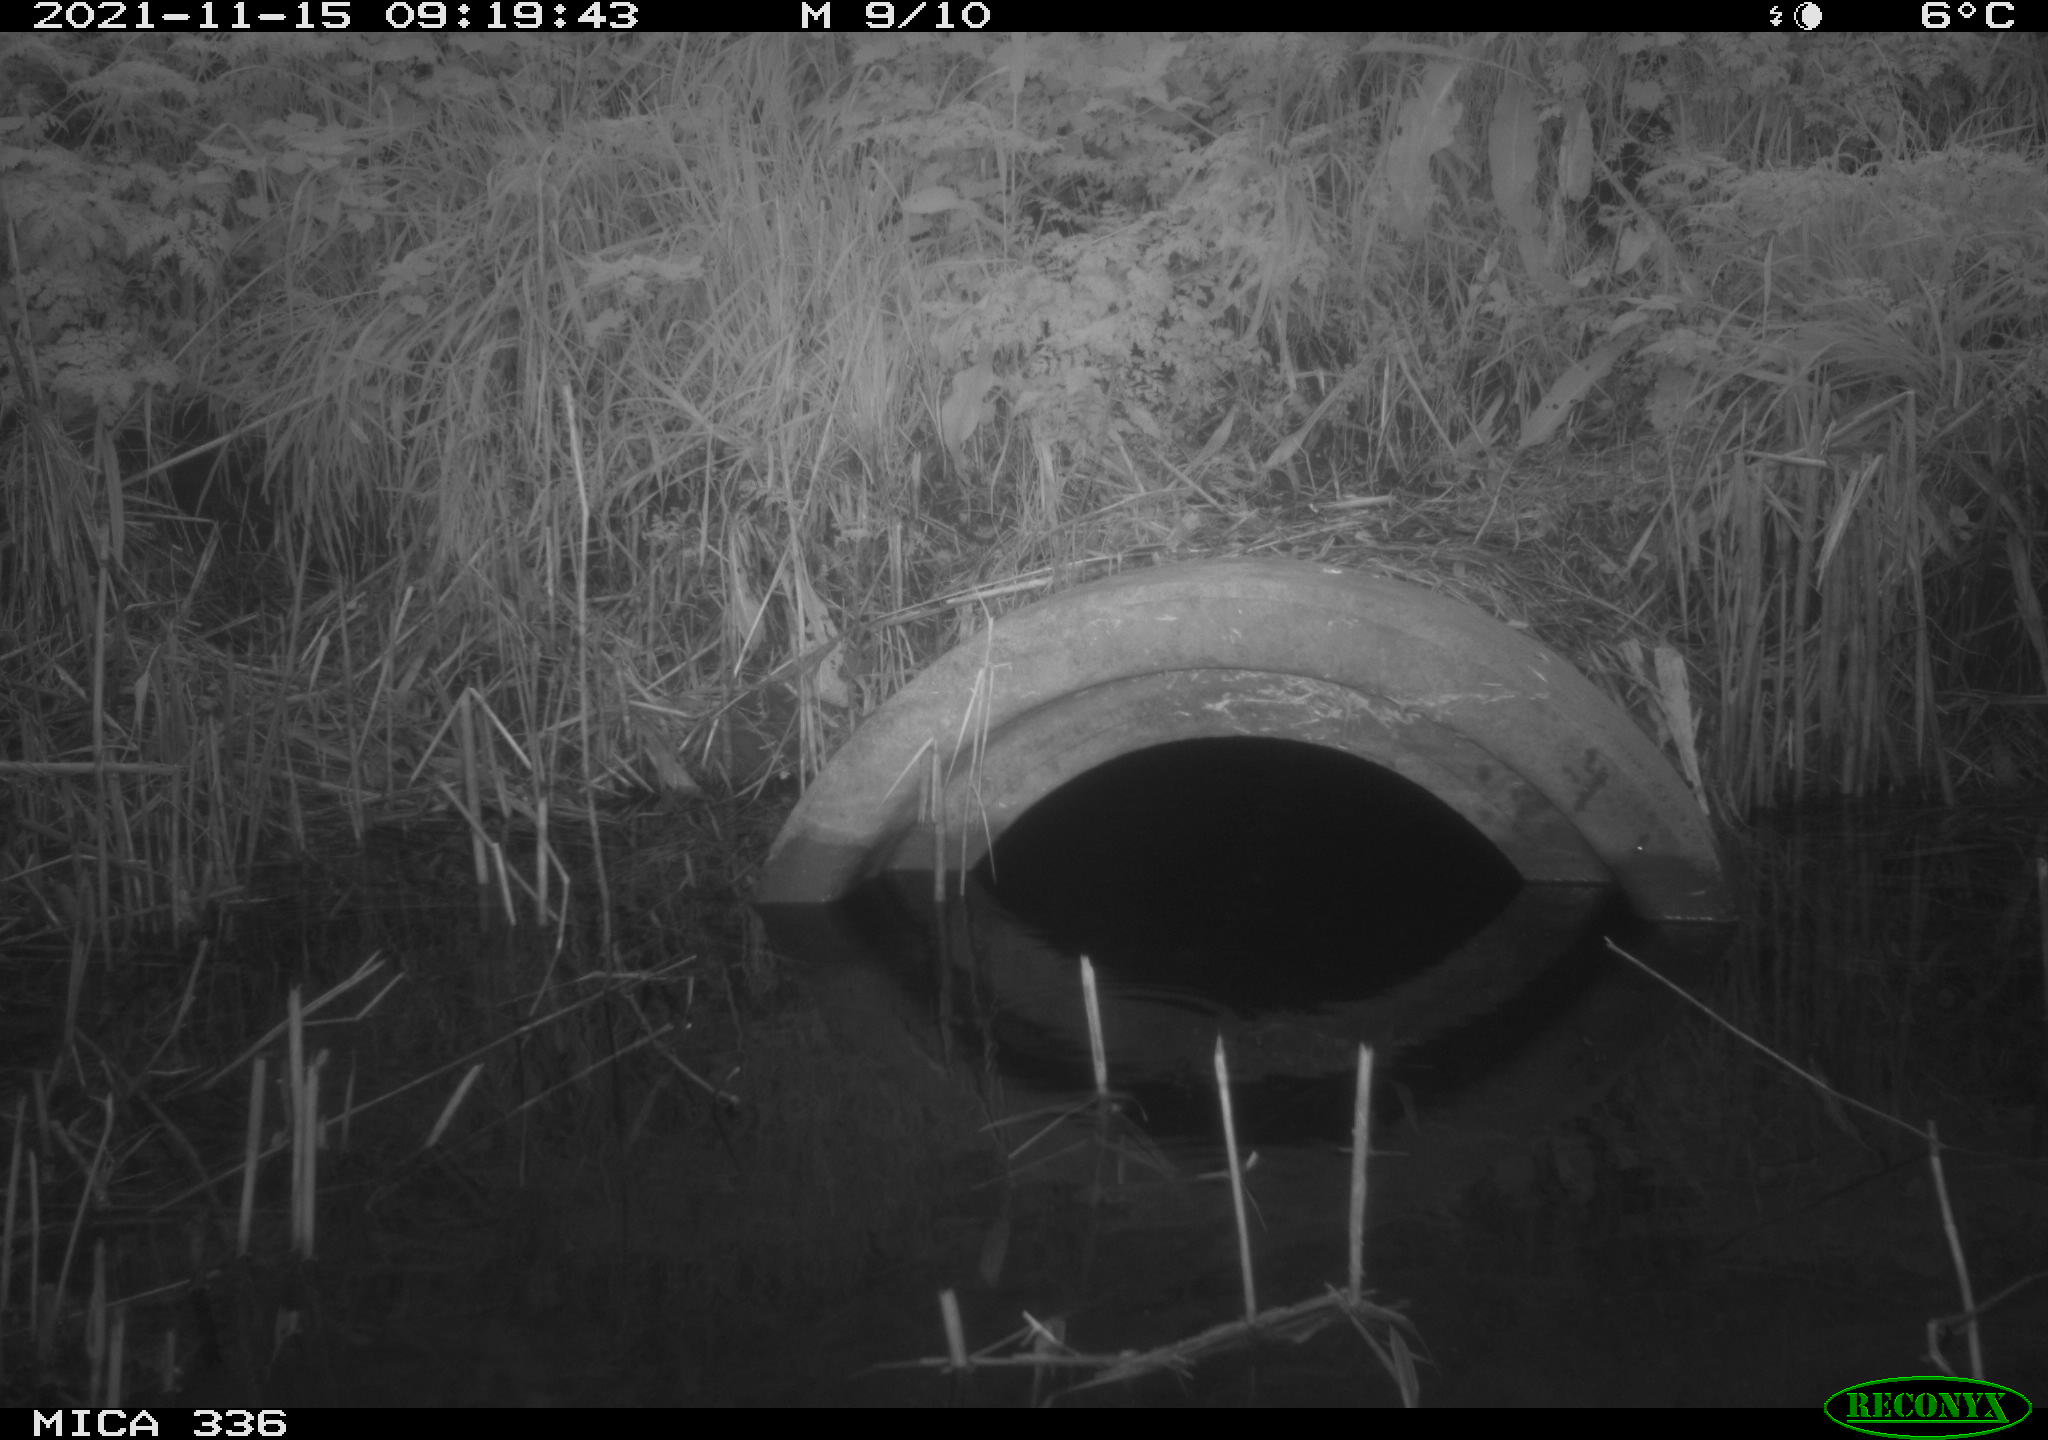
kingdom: Animalia
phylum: Chordata
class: Aves
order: Gruiformes
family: Rallidae
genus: Gallinula
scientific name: Gallinula chloropus
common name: Common moorhen
